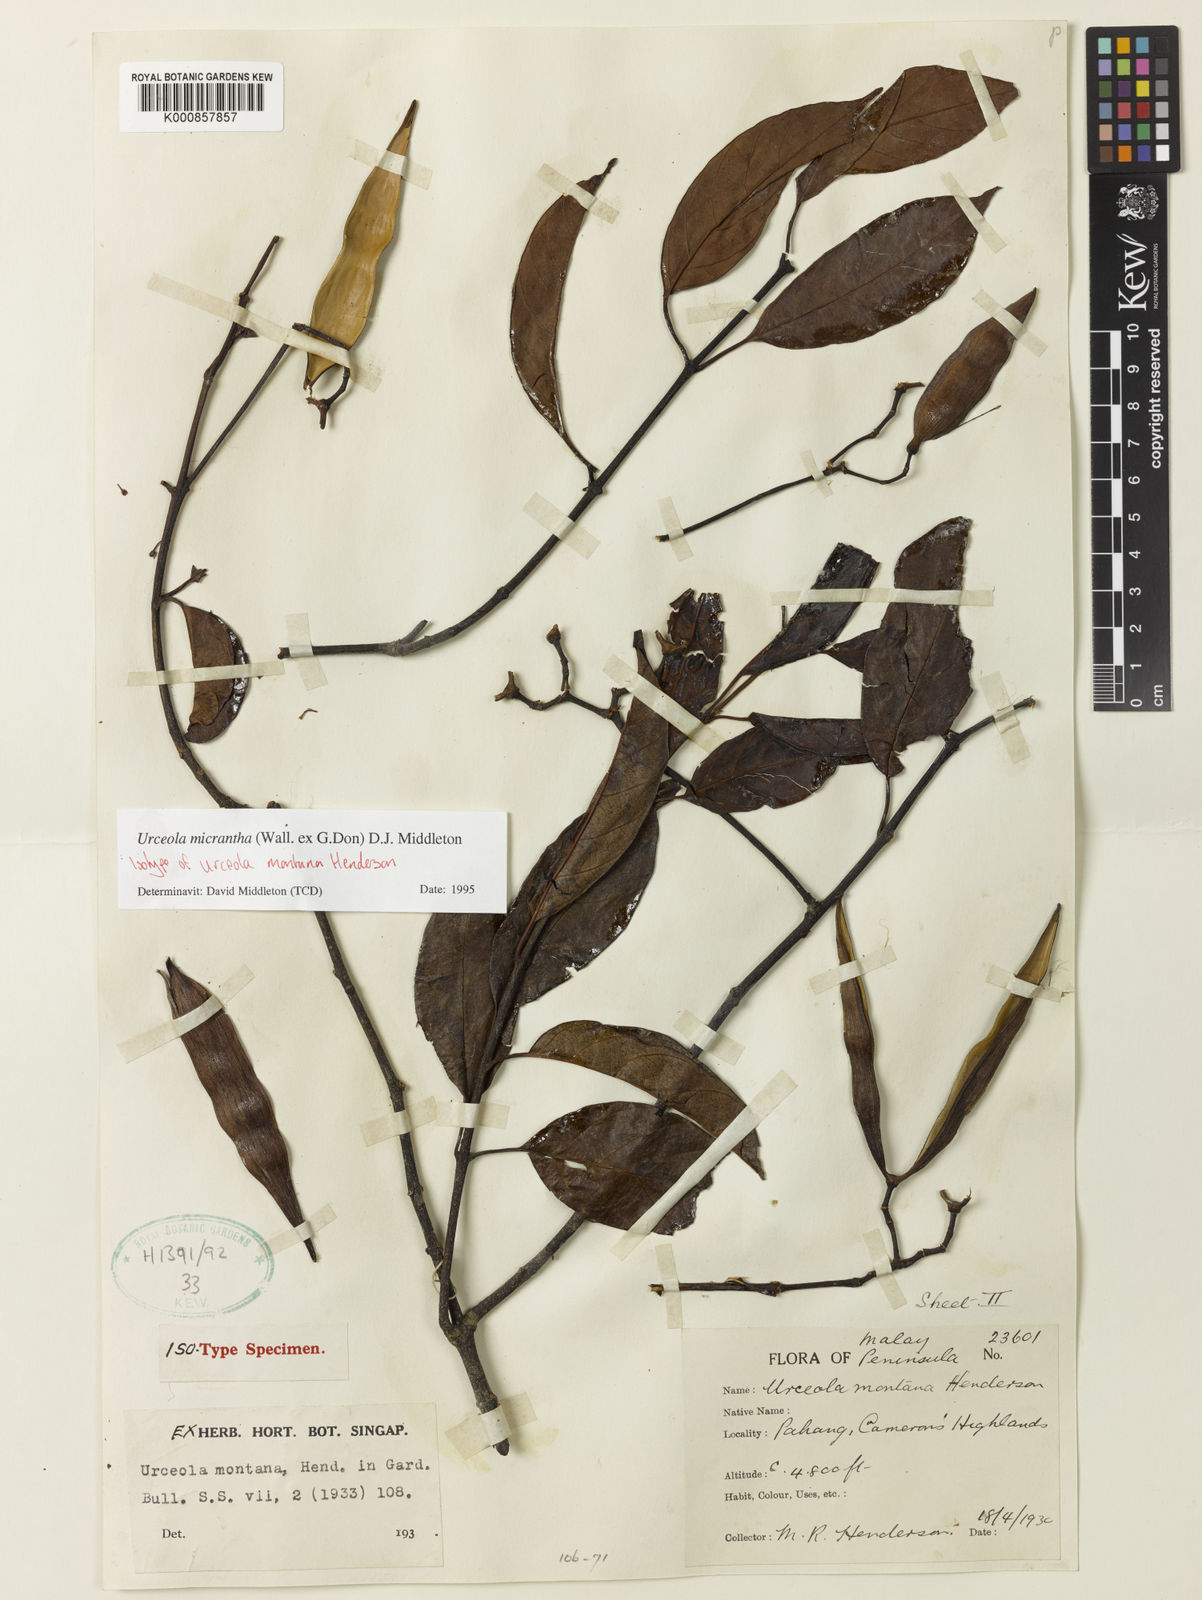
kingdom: Plantae
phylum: Tracheophyta
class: Magnoliopsida
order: Gentianales
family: Apocynaceae
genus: Urceola
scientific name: Urceola micrantha
